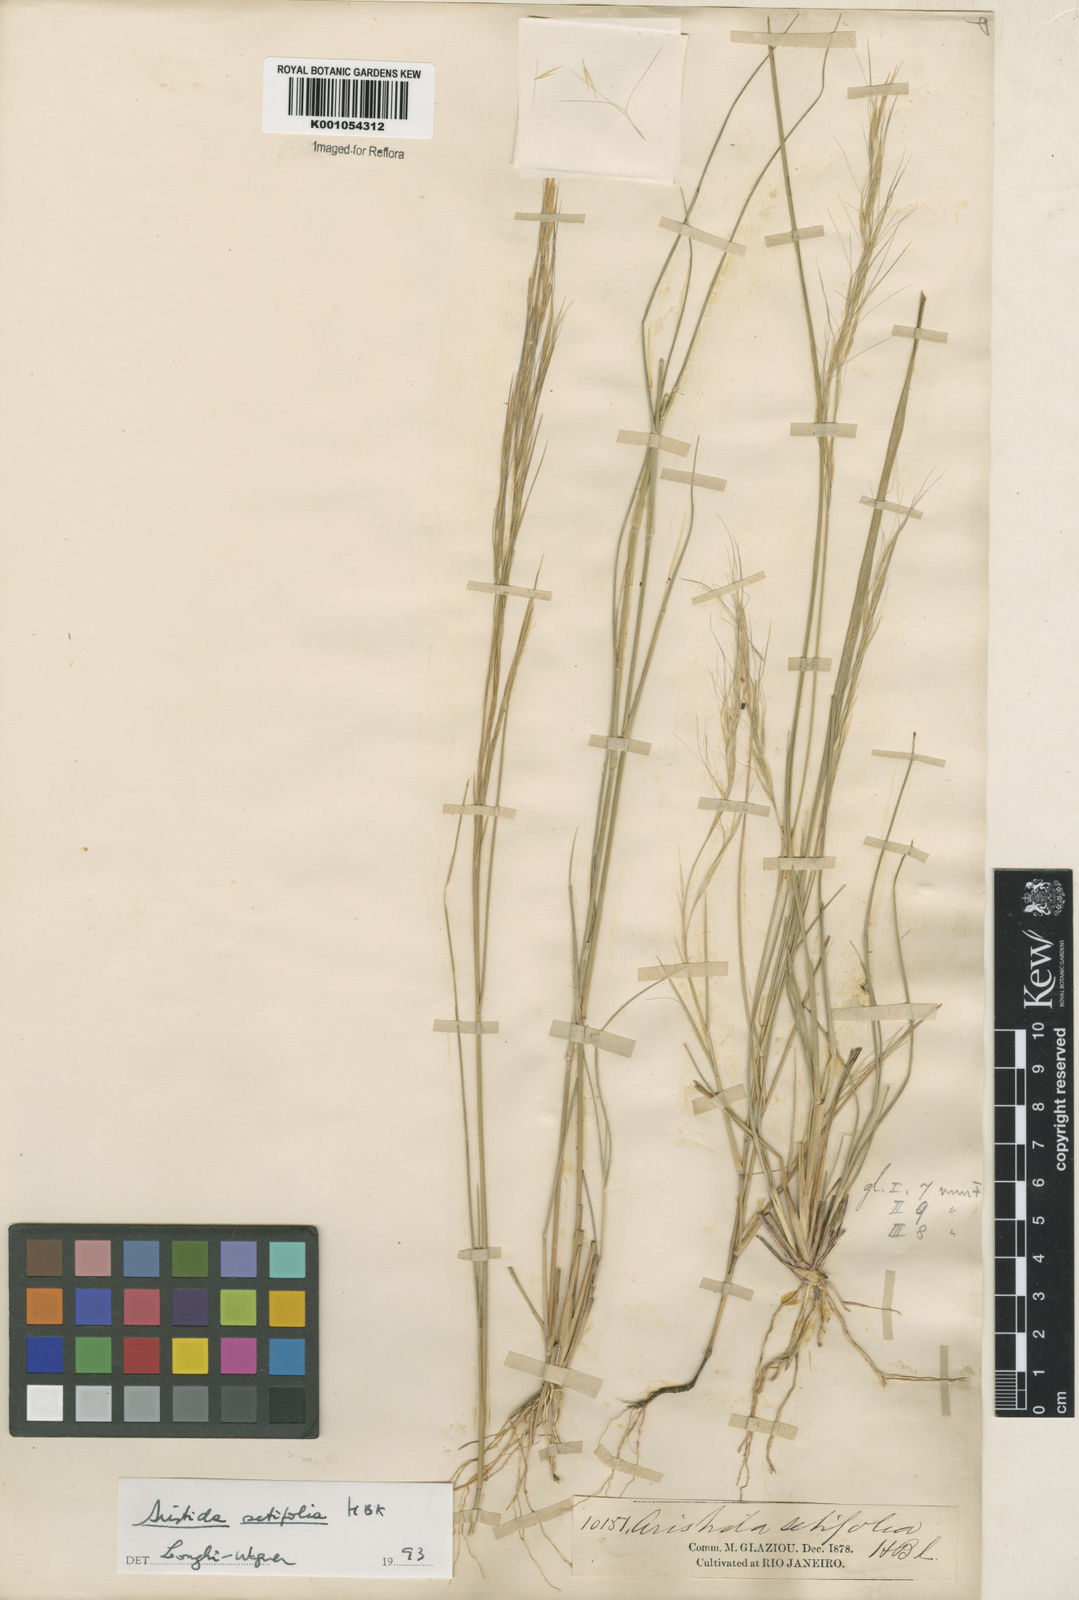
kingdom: Plantae
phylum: Tracheophyta
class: Liliopsida
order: Poales
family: Poaceae
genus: Aristida
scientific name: Aristida setifolia
